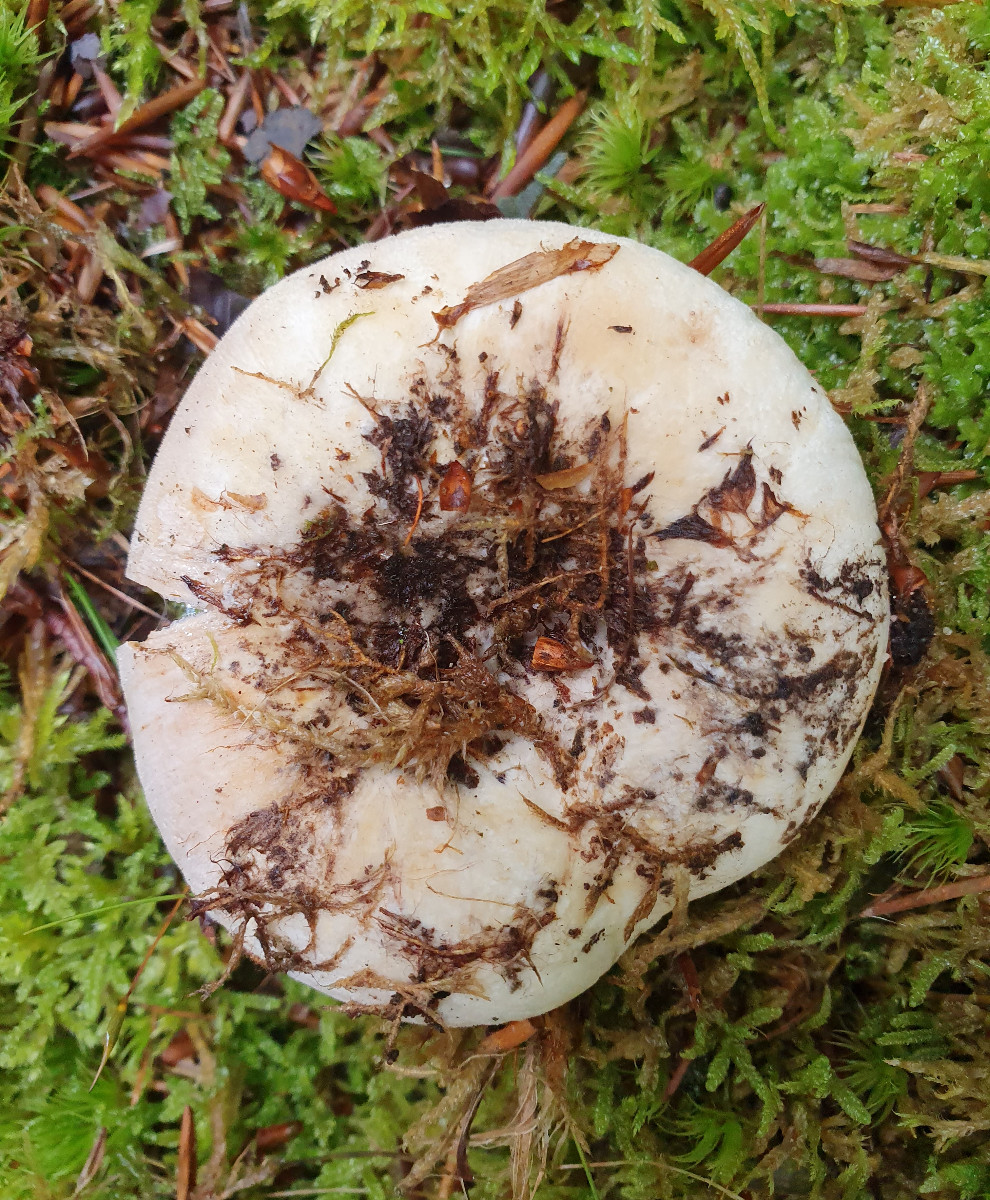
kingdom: Fungi
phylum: Basidiomycota
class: Agaricomycetes
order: Russulales
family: Russulaceae
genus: Lactifluus
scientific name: Lactifluus bertillonii
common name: blødfiltet mælkehat
